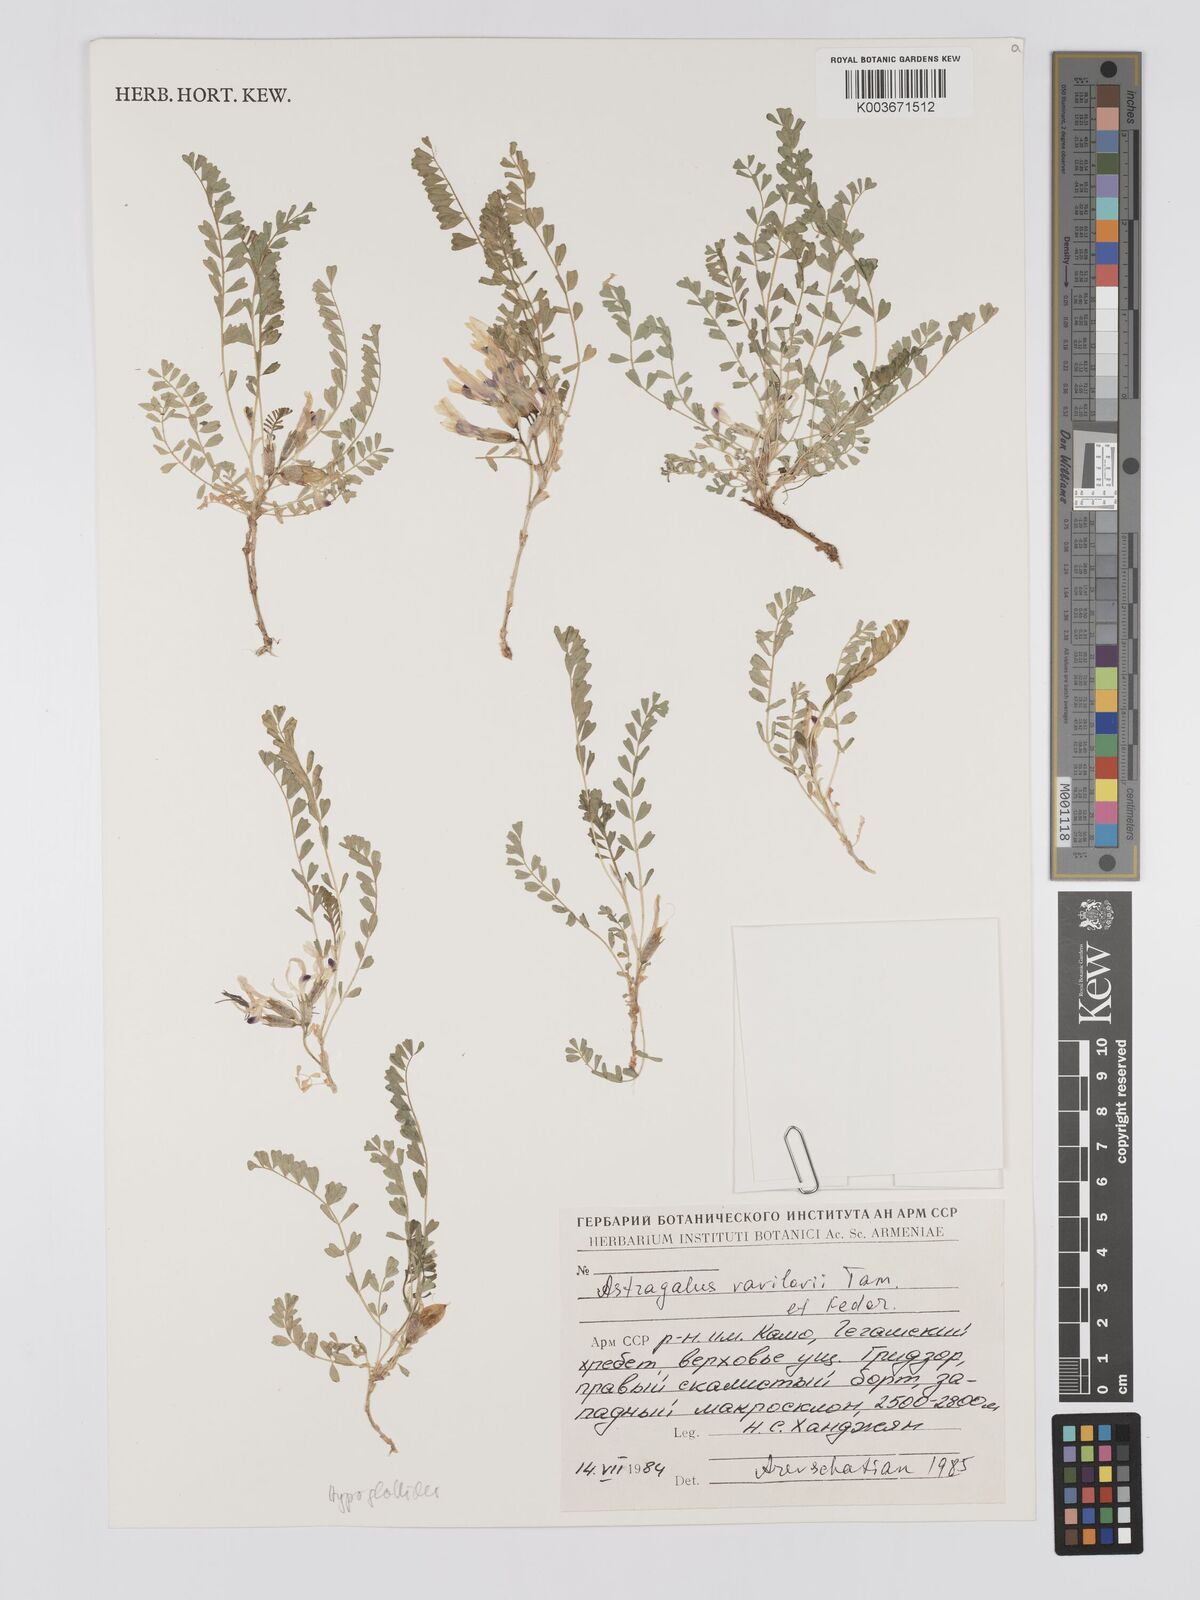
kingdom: Plantae
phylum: Tracheophyta
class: Magnoliopsida
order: Fabales
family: Fabaceae
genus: Astragalus
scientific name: Astragalus vavilovii
